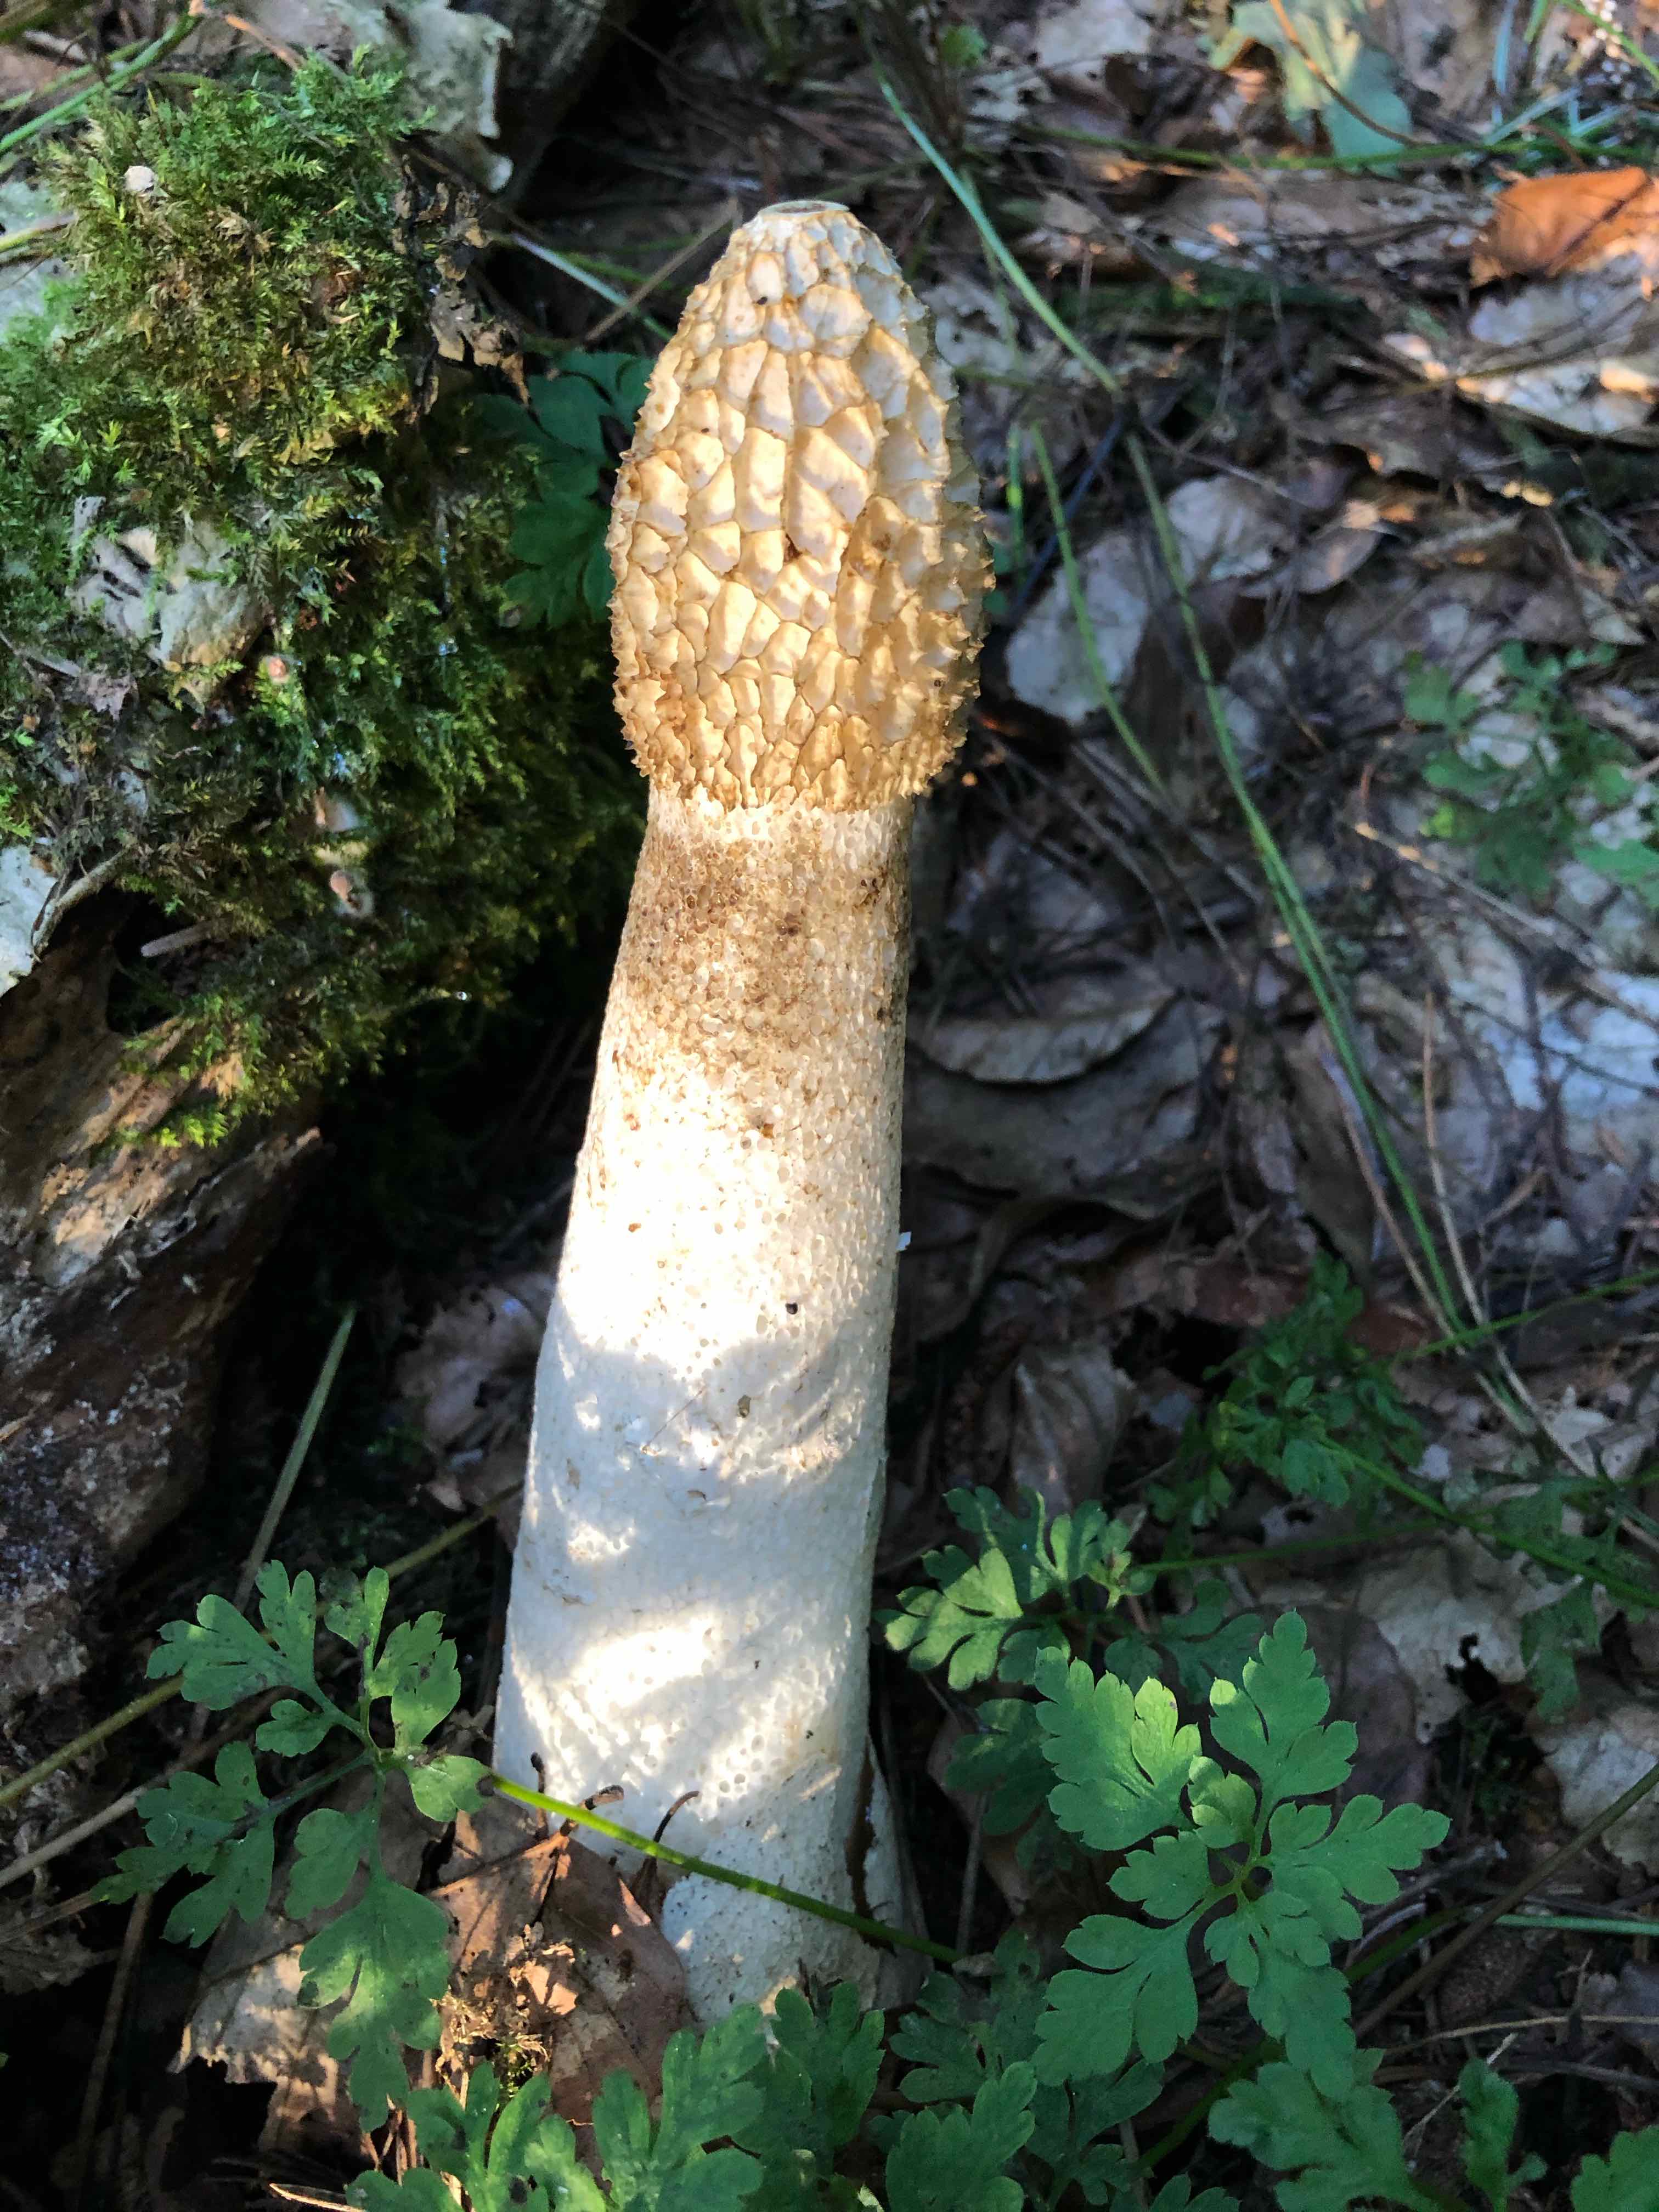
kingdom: Fungi
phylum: Basidiomycota
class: Agaricomycetes
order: Phallales
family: Phallaceae
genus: Phallus
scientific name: Phallus impudicus
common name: almindelig stinksvamp
